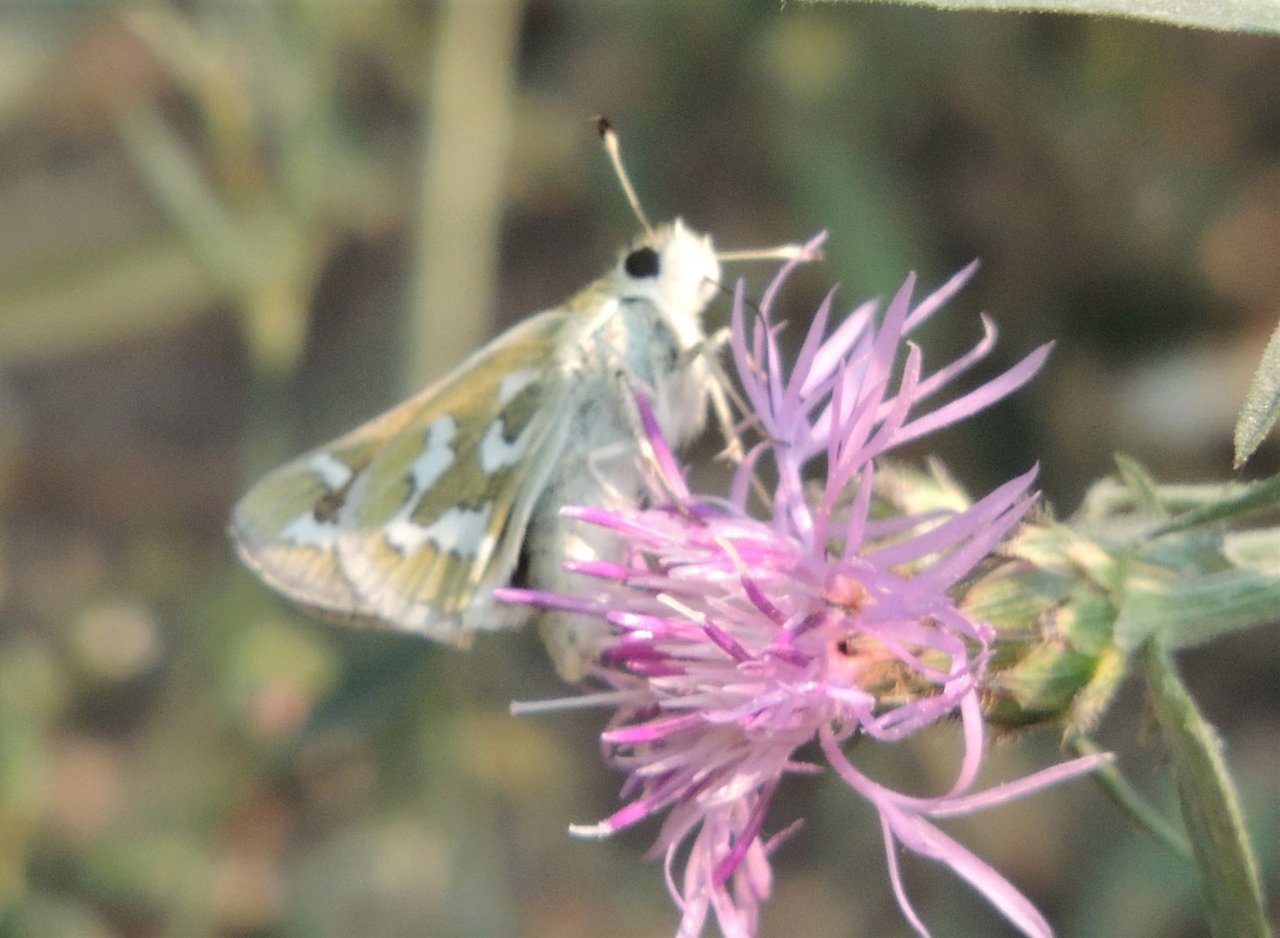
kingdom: Animalia
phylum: Arthropoda
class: Insecta
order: Lepidoptera
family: Hesperiidae
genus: Hesperia
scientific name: Hesperia comma
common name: Western Branded Skipper
